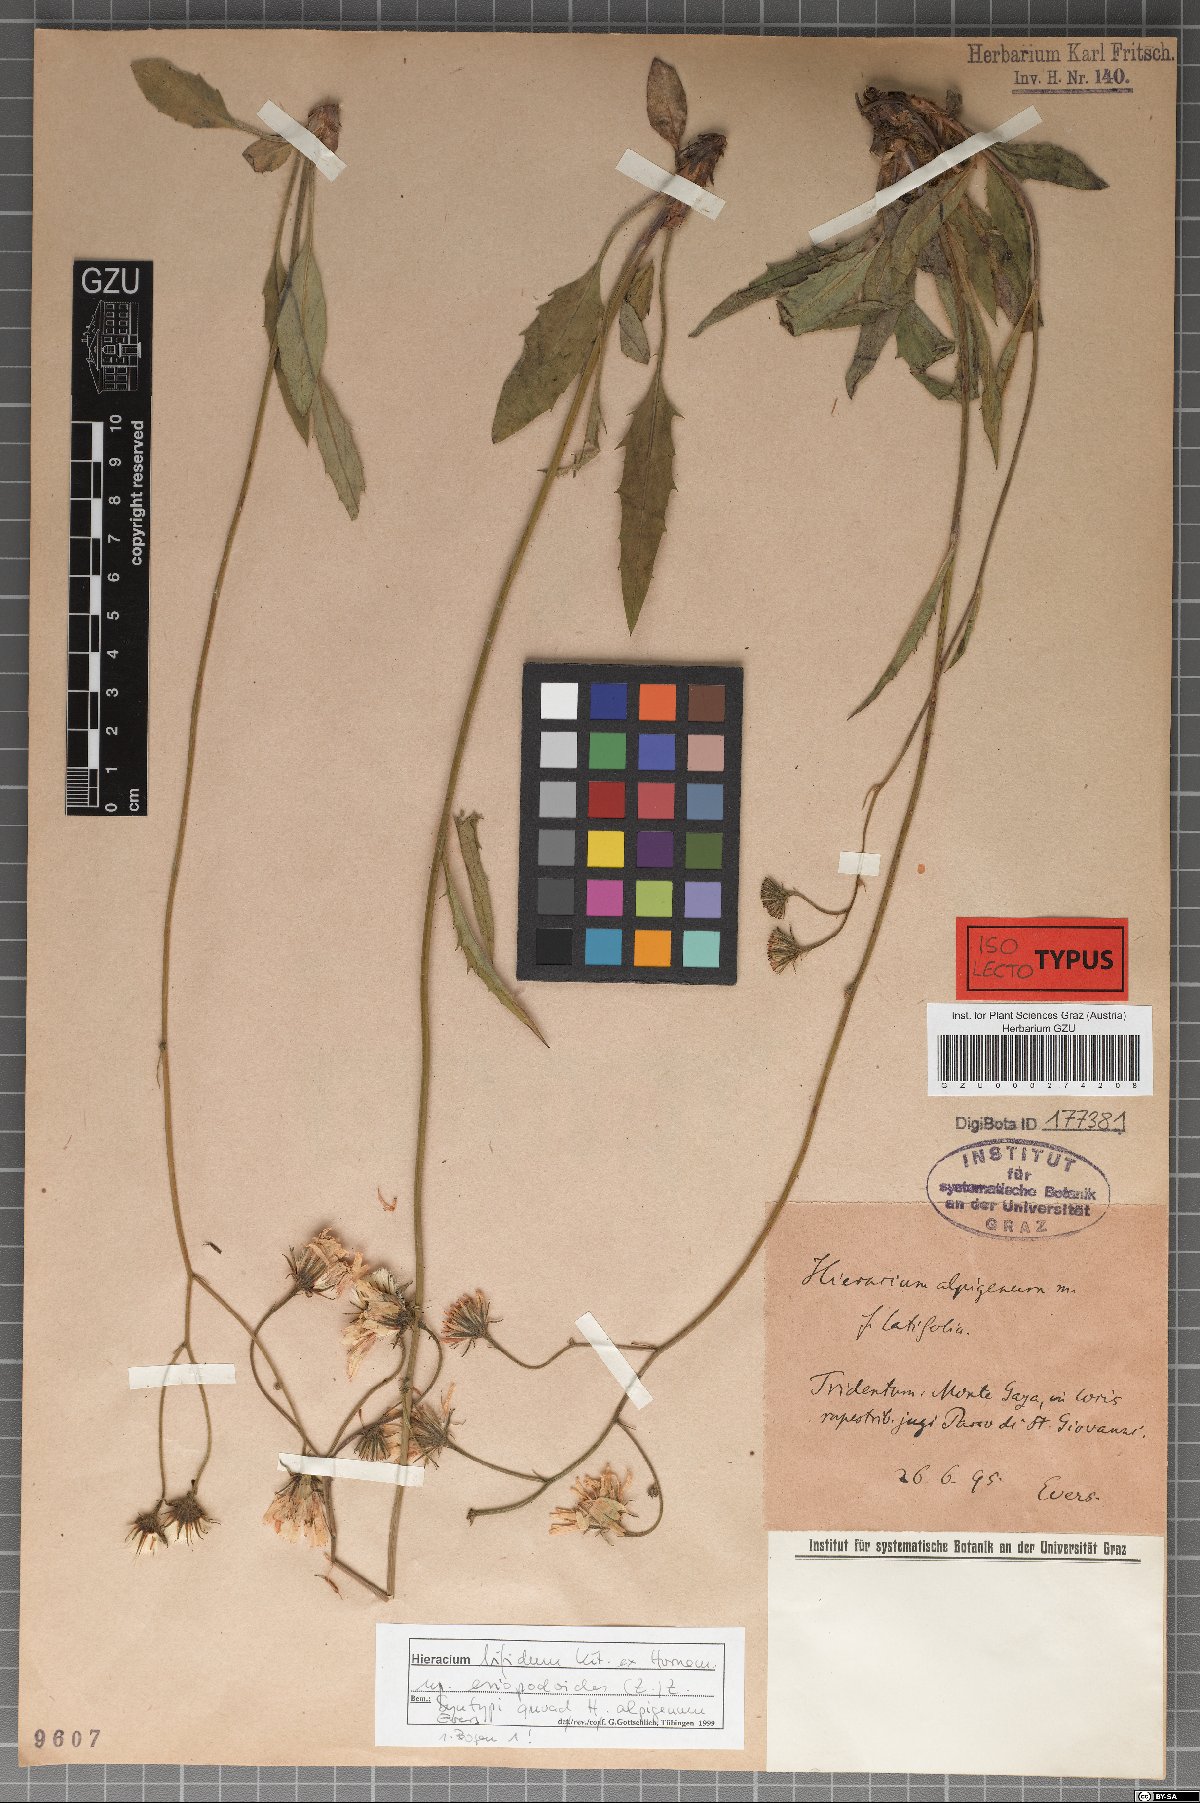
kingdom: Plantae
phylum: Tracheophyta
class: Magnoliopsida
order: Asterales
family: Asteraceae
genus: Hieracium
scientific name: Hieracium alpigena
